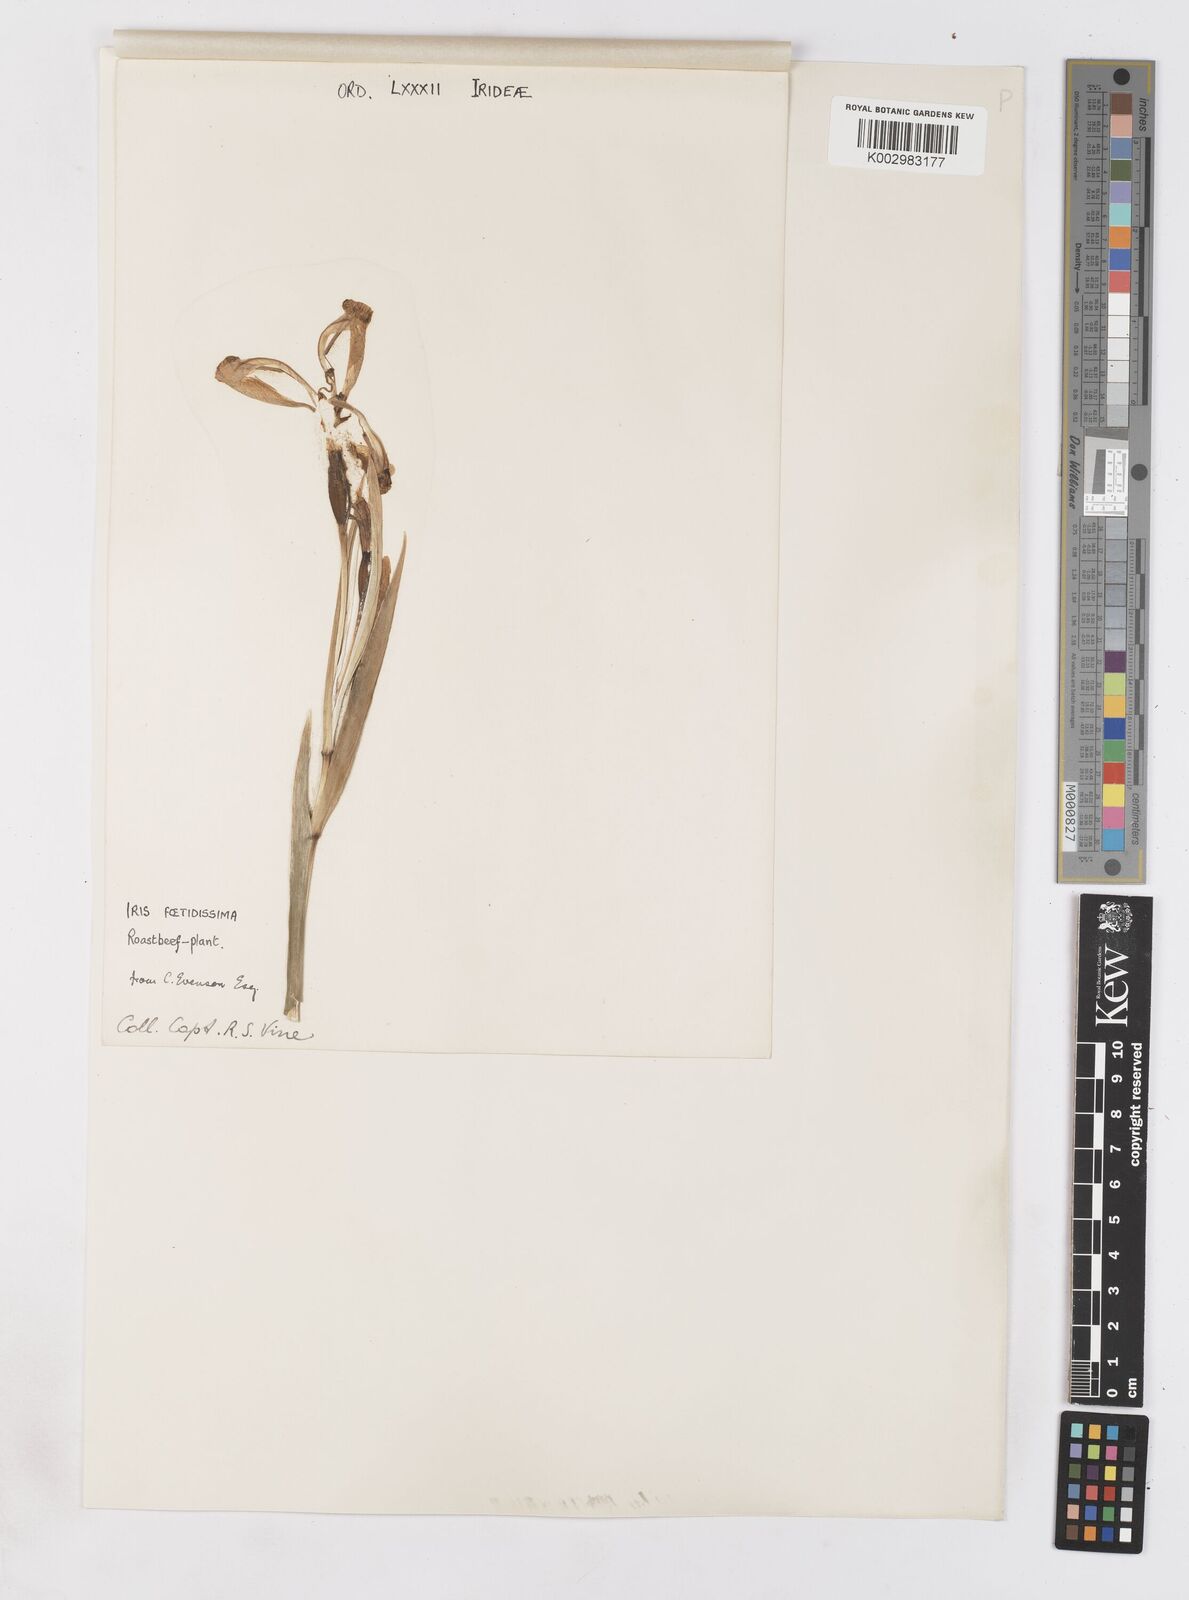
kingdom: Plantae
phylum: Tracheophyta
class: Liliopsida
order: Asparagales
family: Iridaceae
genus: Iris
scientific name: Iris foetidissima
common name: Stinking iris
